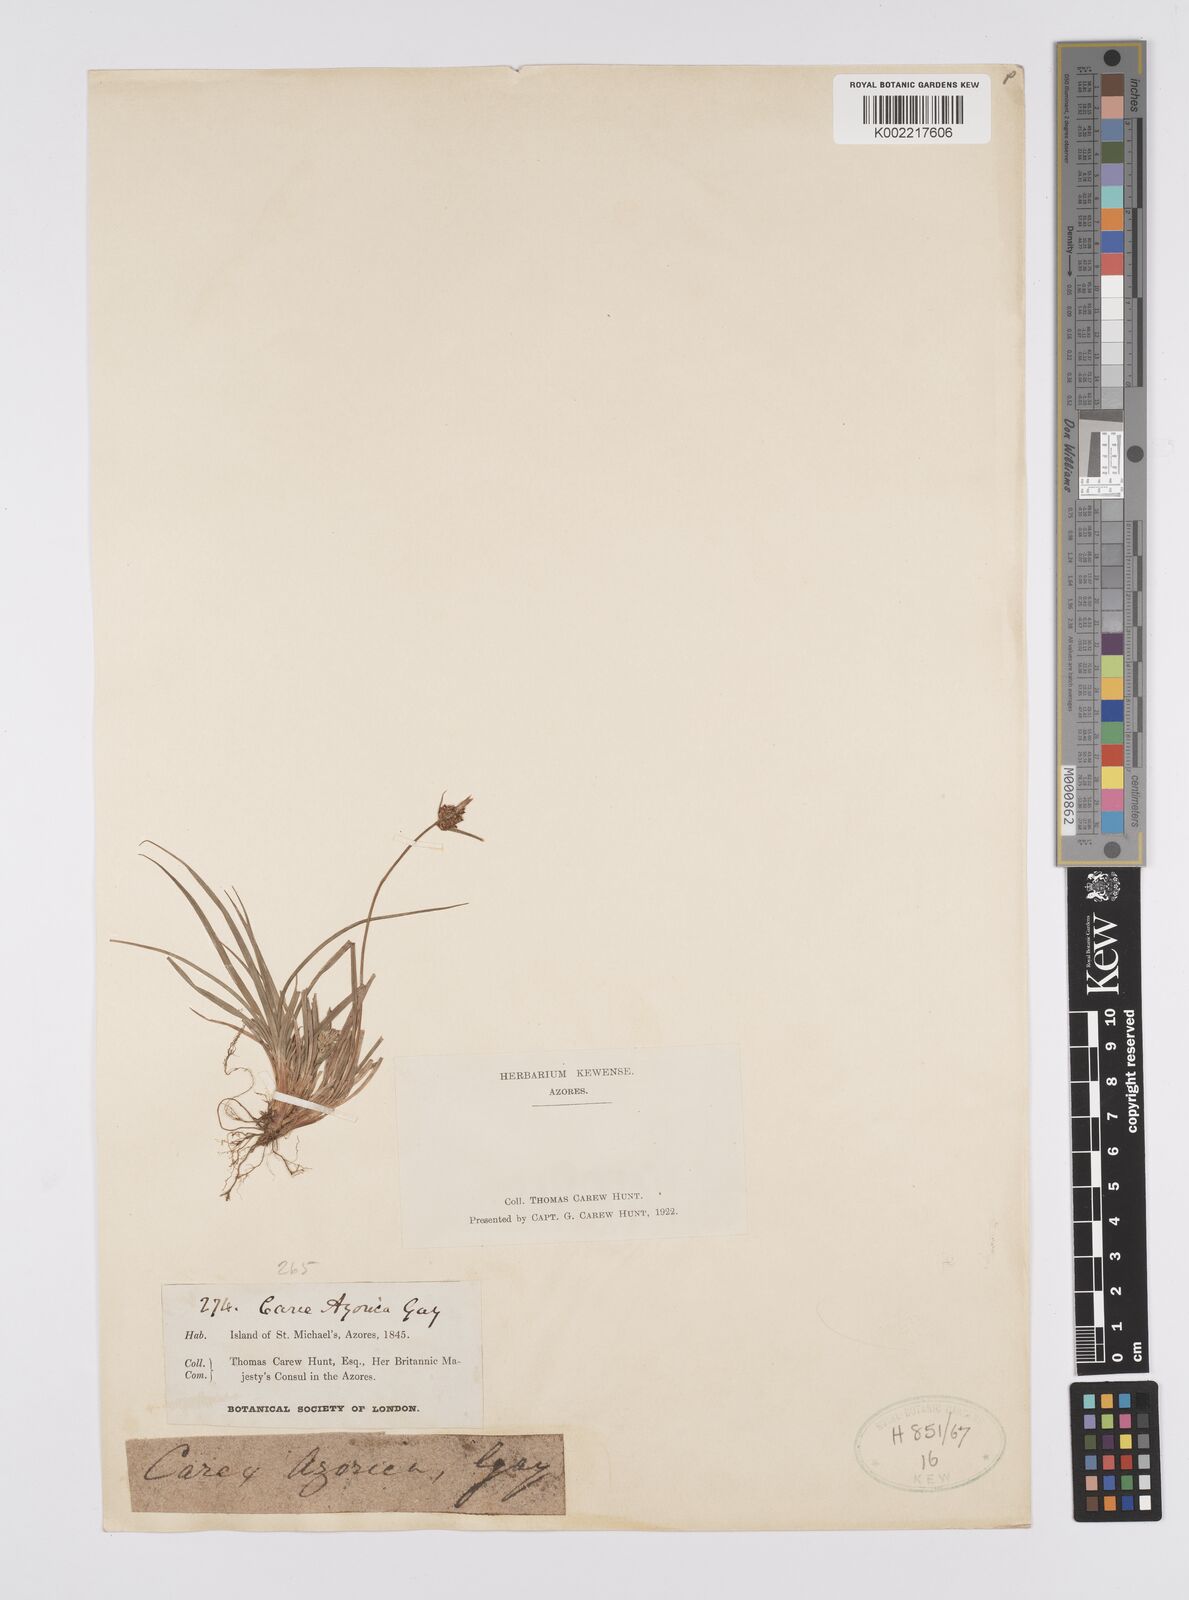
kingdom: Plantae
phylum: Tracheophyta
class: Liliopsida
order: Poales
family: Cyperaceae
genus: Carex
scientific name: Carex pilulifera
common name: Pill sedge
